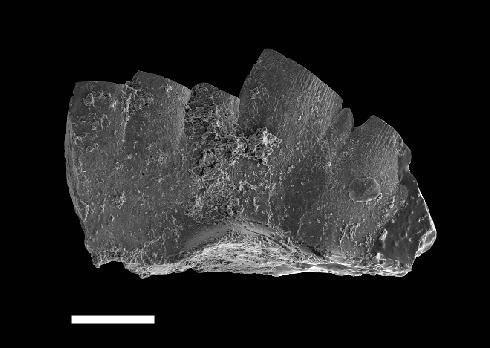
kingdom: Animalia
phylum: Chordata
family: Prioniodontidae
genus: Ozarkodina
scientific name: Ozarkodina
